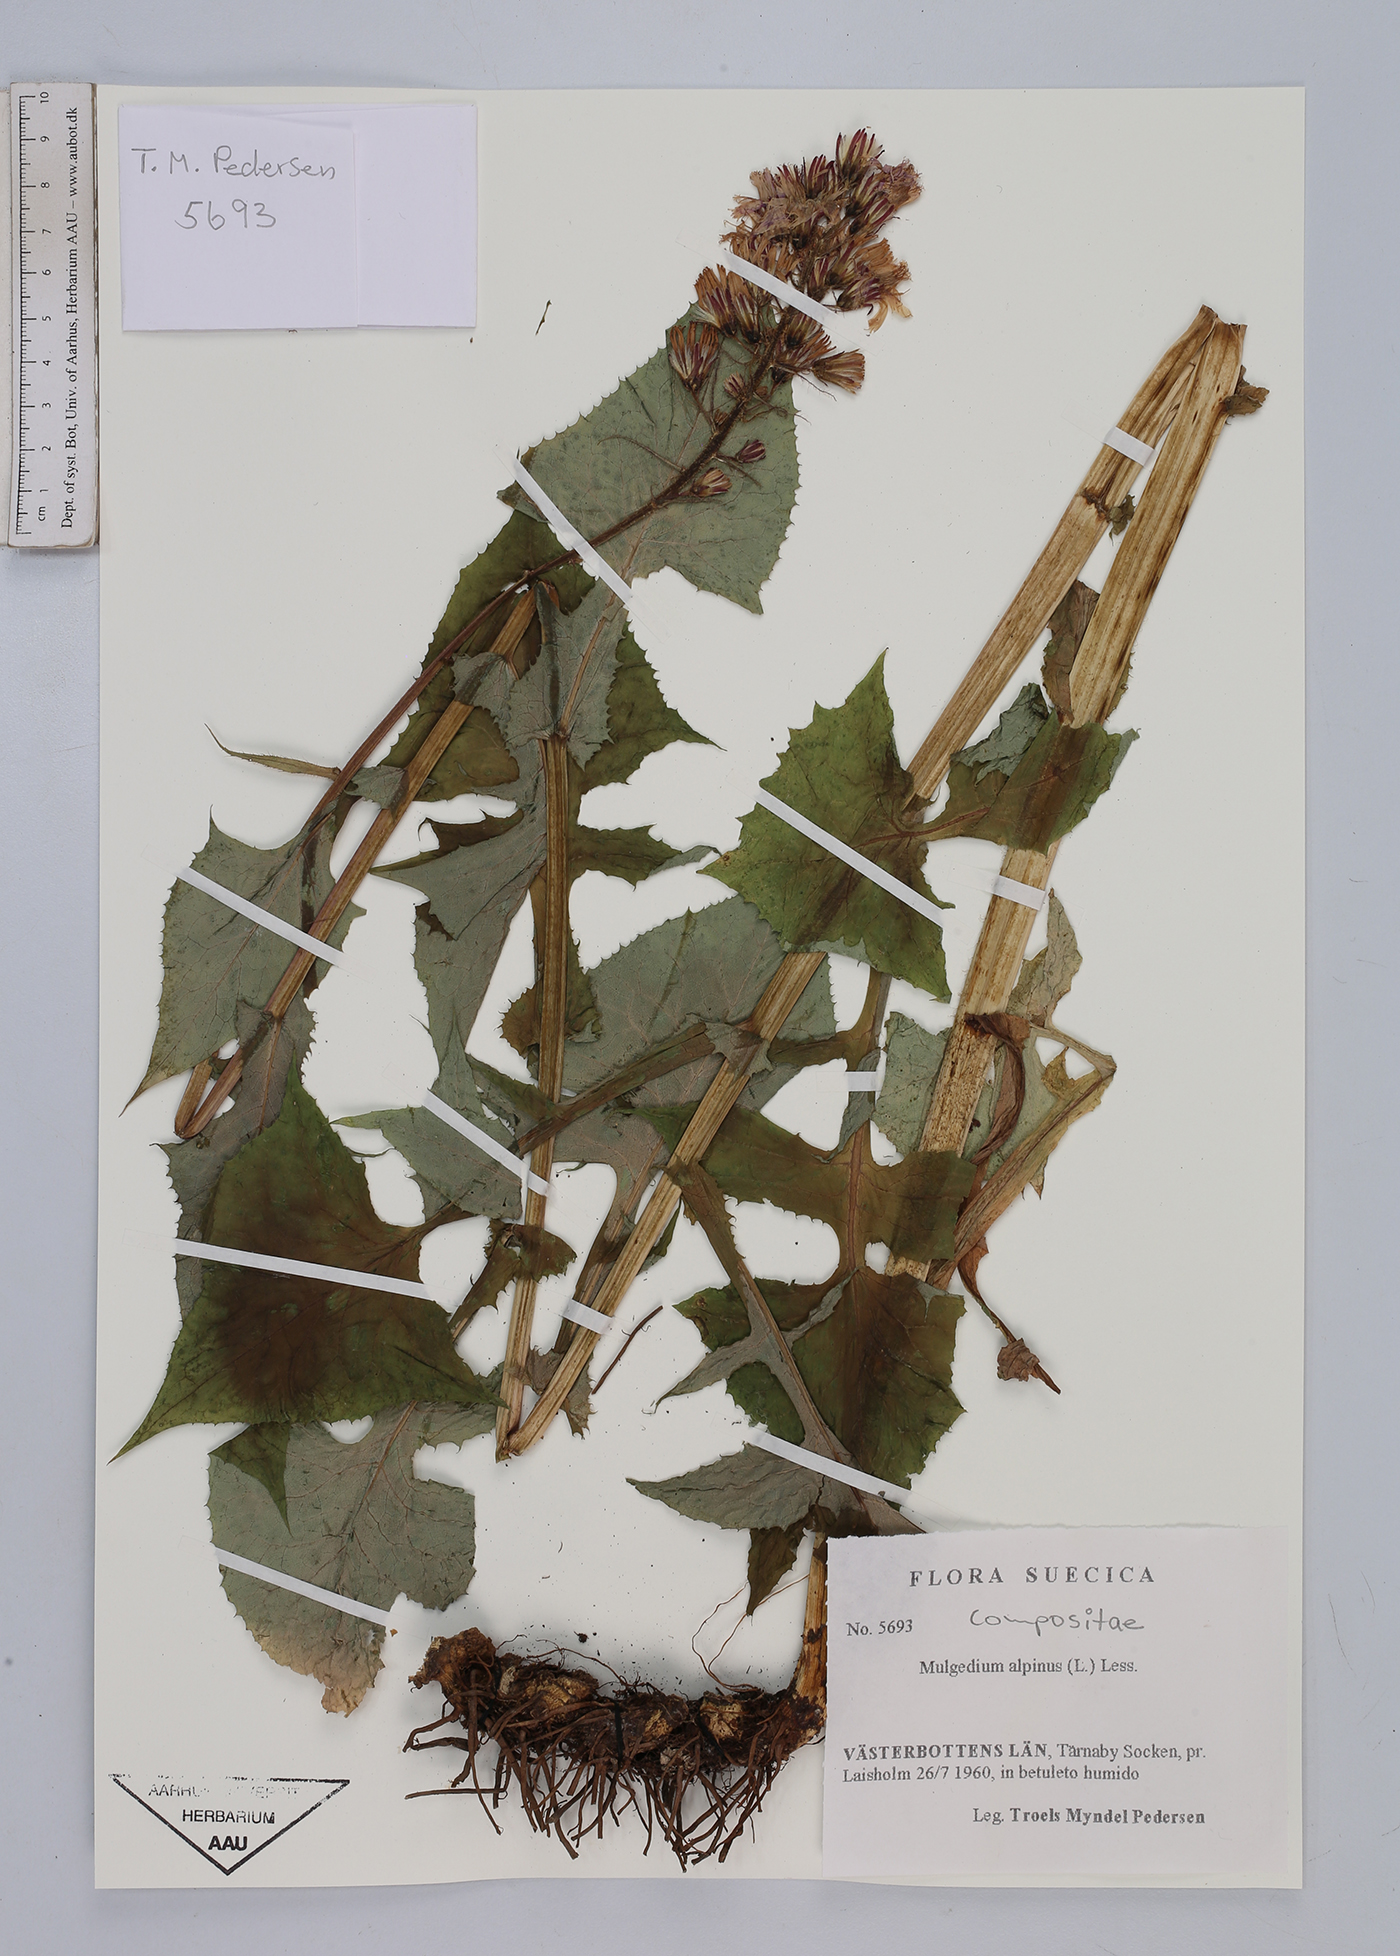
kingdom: Plantae
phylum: Tracheophyta
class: Magnoliopsida
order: Asterales
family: Asteraceae
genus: Cicerbita
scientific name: Cicerbita alpina
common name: Alpine blue-sow-thistle
